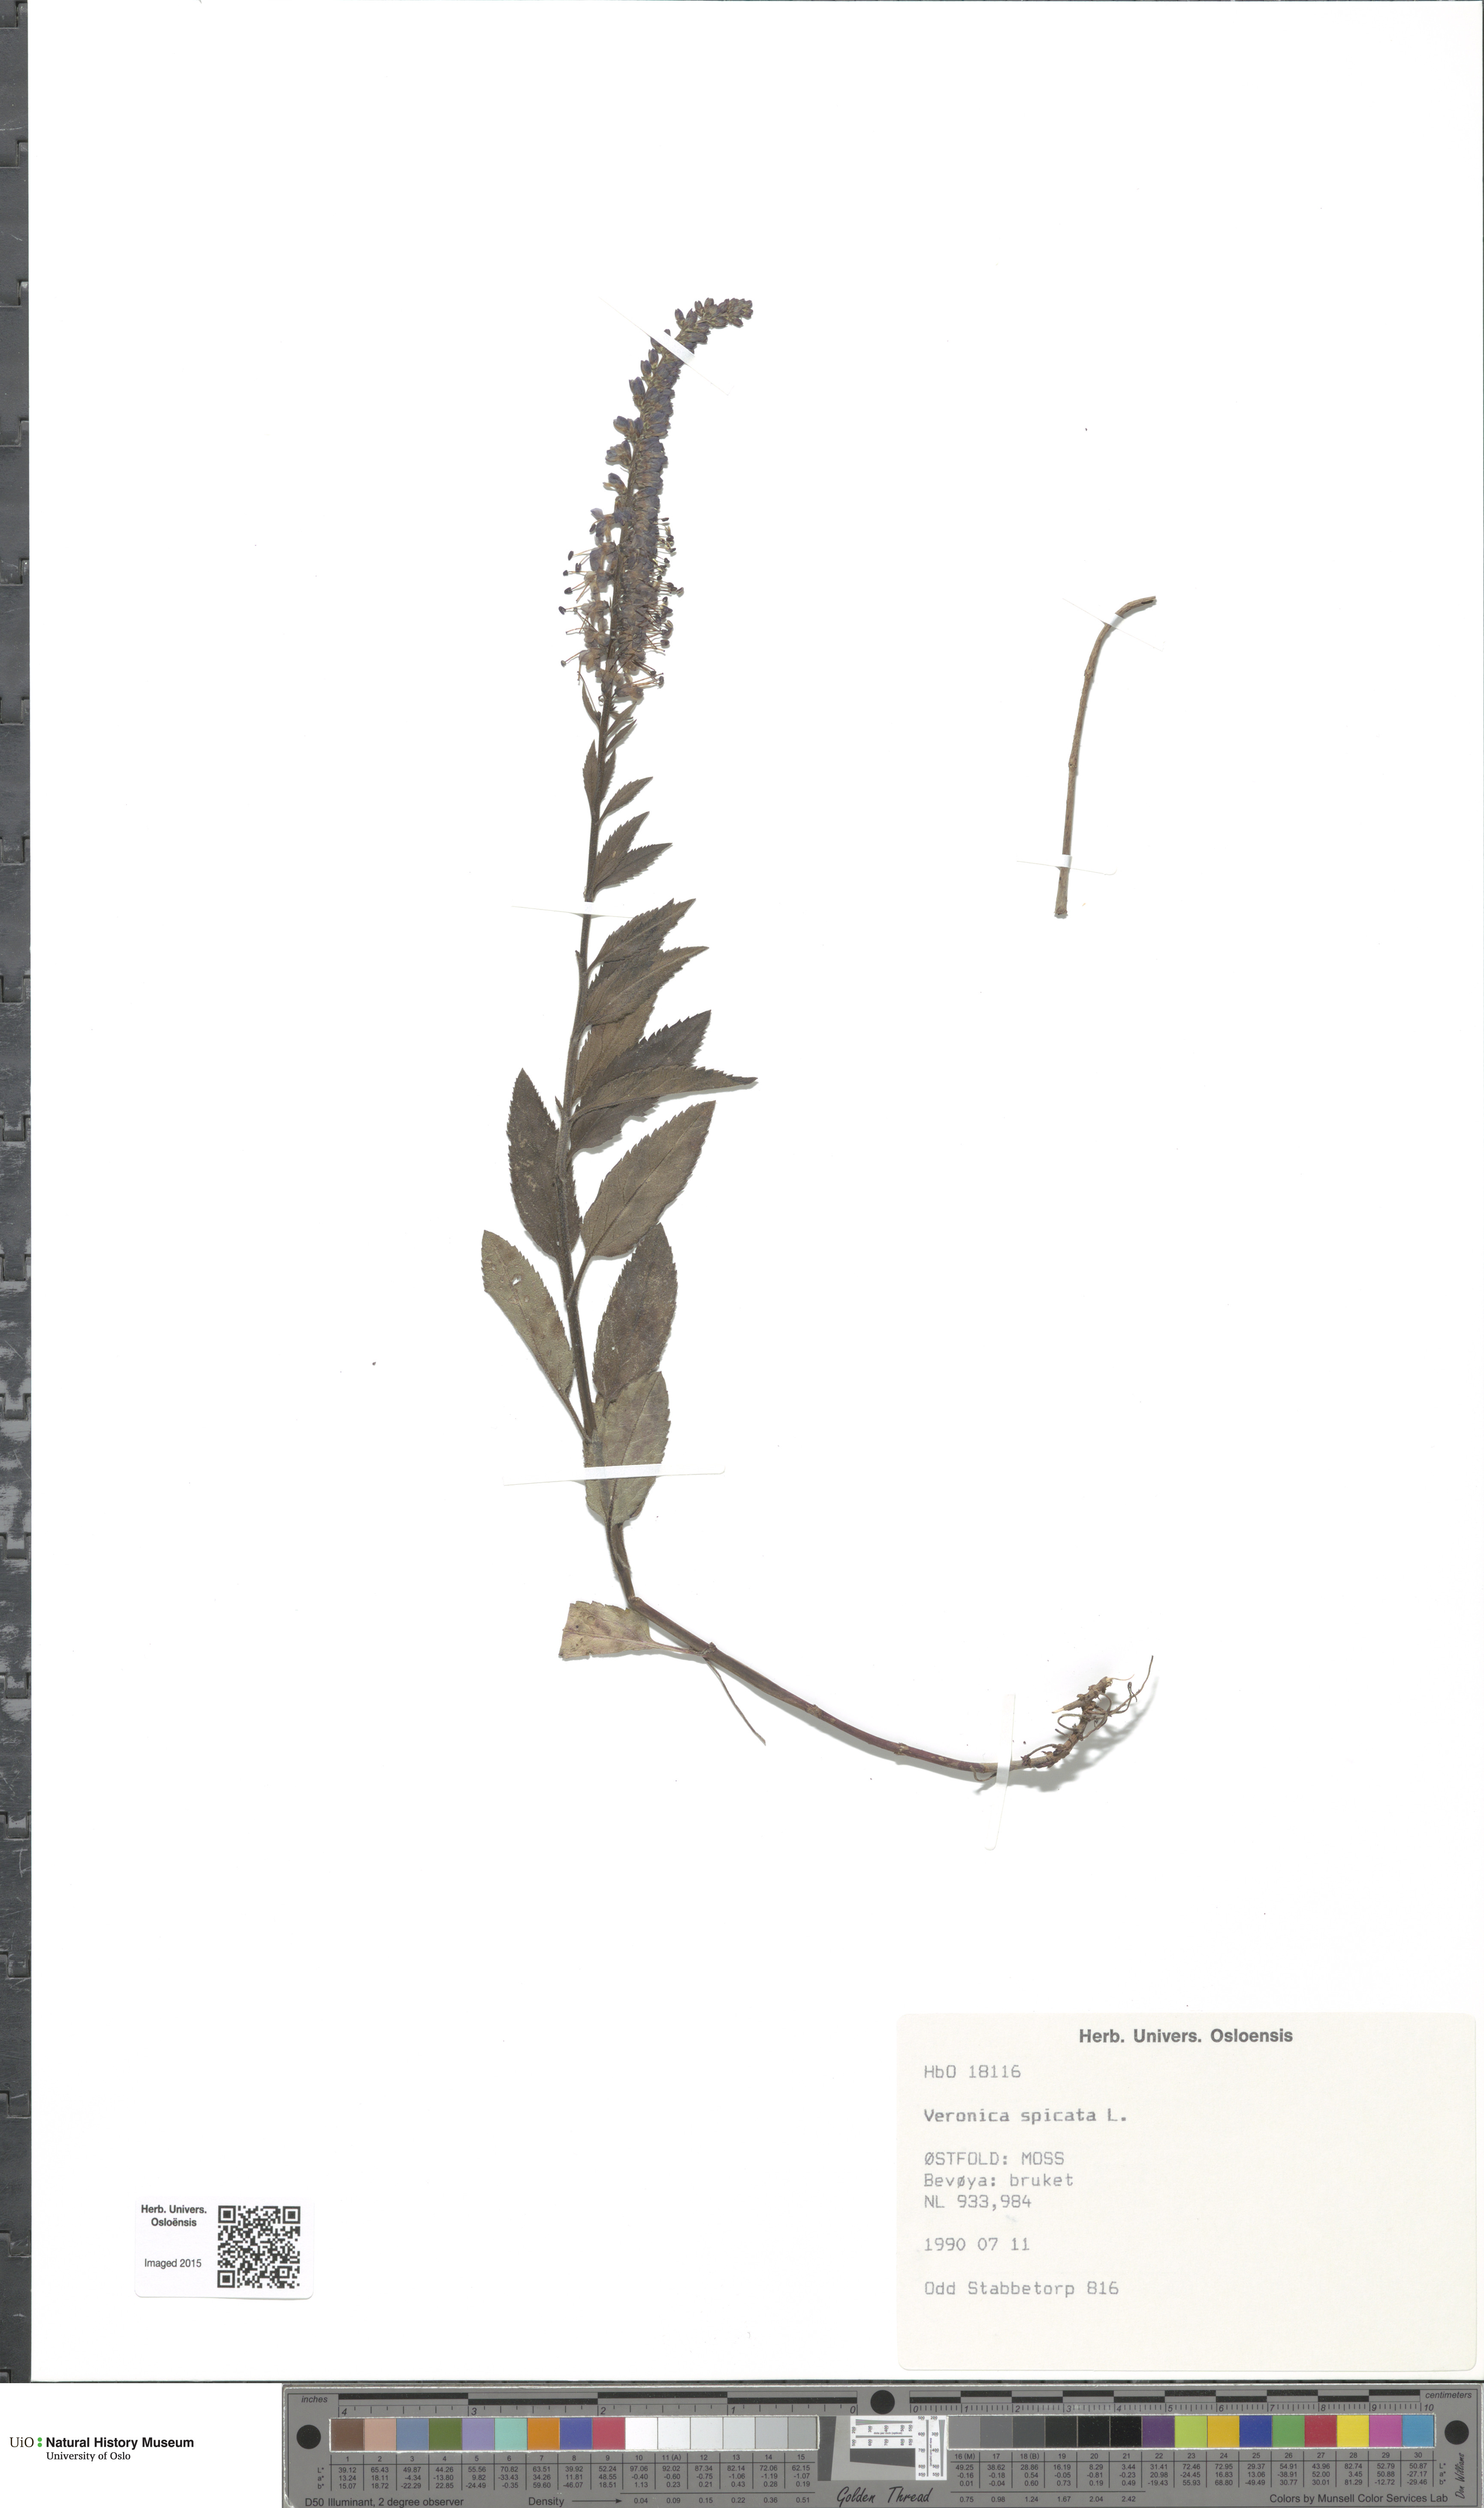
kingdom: Plantae
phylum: Tracheophyta
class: Magnoliopsida
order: Lamiales
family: Plantaginaceae
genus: Veronica
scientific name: Veronica spicata
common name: Spiked speedwell
